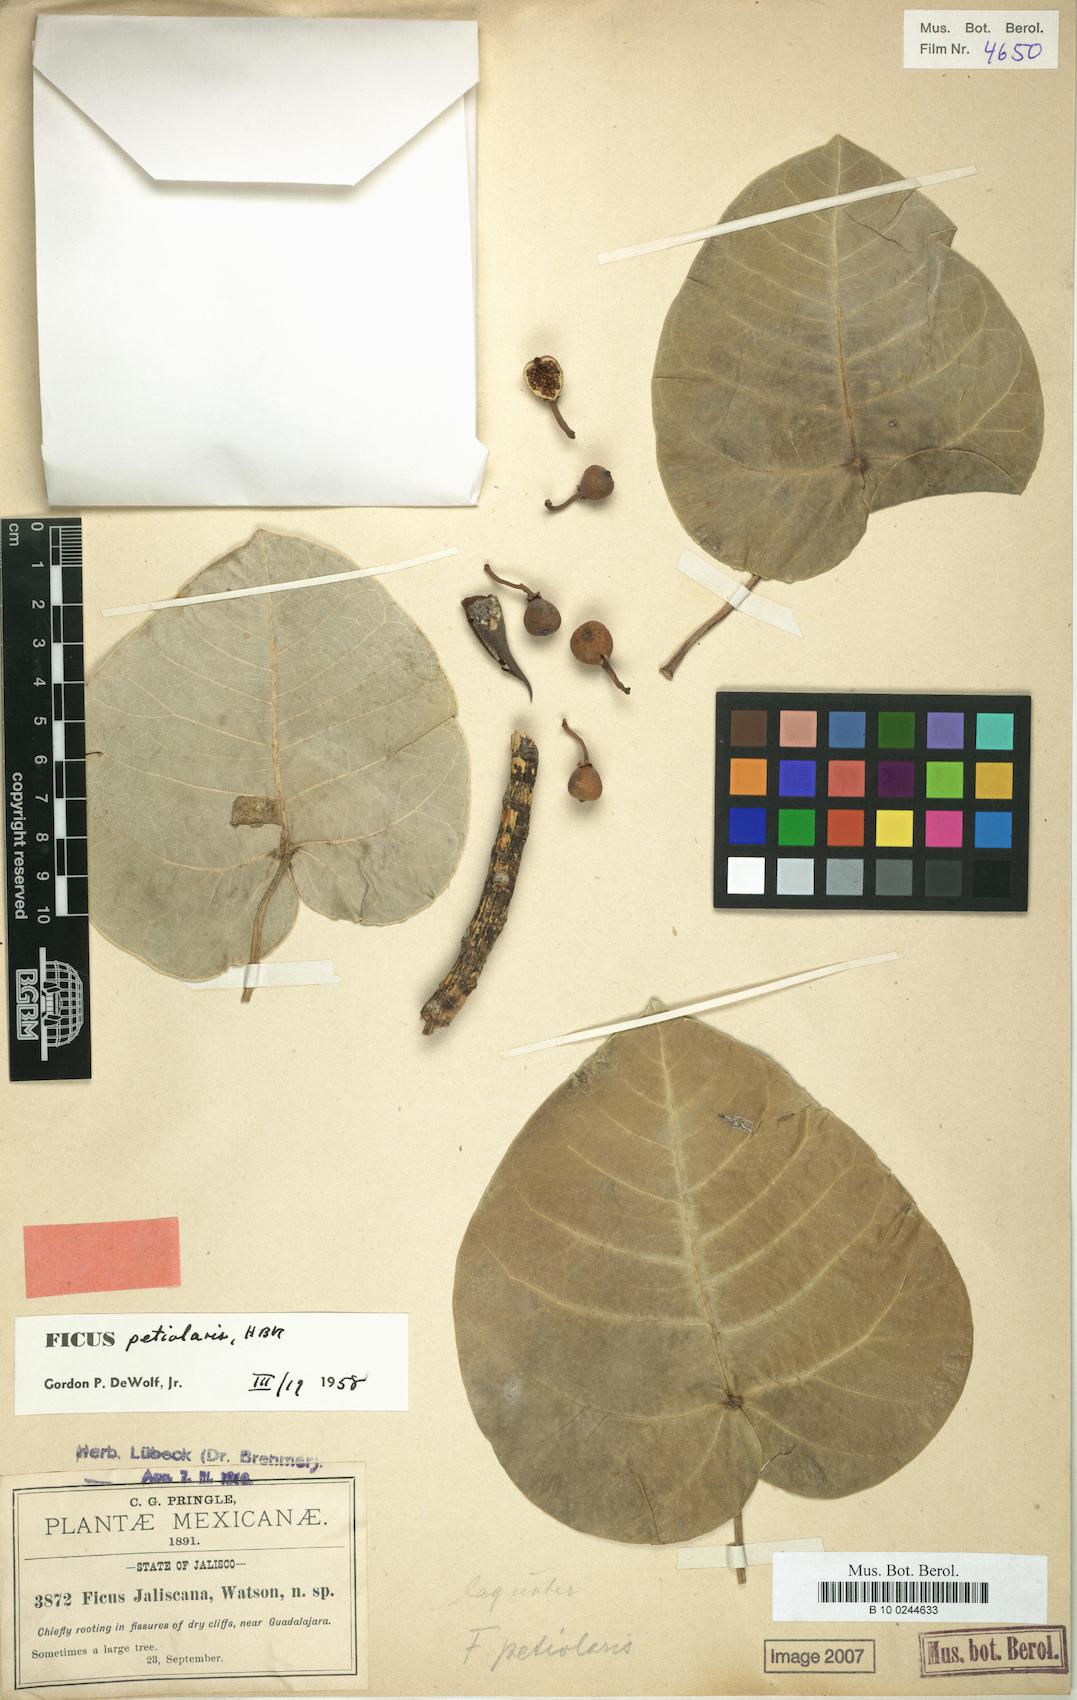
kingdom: Plantae
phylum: Tracheophyta
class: Magnoliopsida
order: Rosales
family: Moraceae
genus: Ficus
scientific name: Ficus petiolaris
